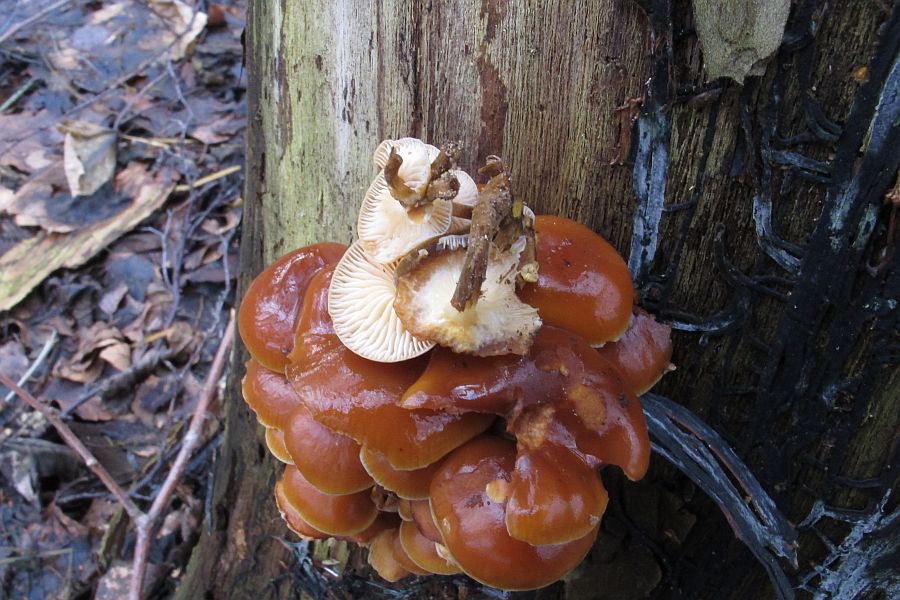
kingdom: Fungi
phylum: Basidiomycota
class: Agaricomycetes
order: Agaricales
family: Physalacriaceae
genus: Flammulina
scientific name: Flammulina elastica
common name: pile-fløjlsfod
